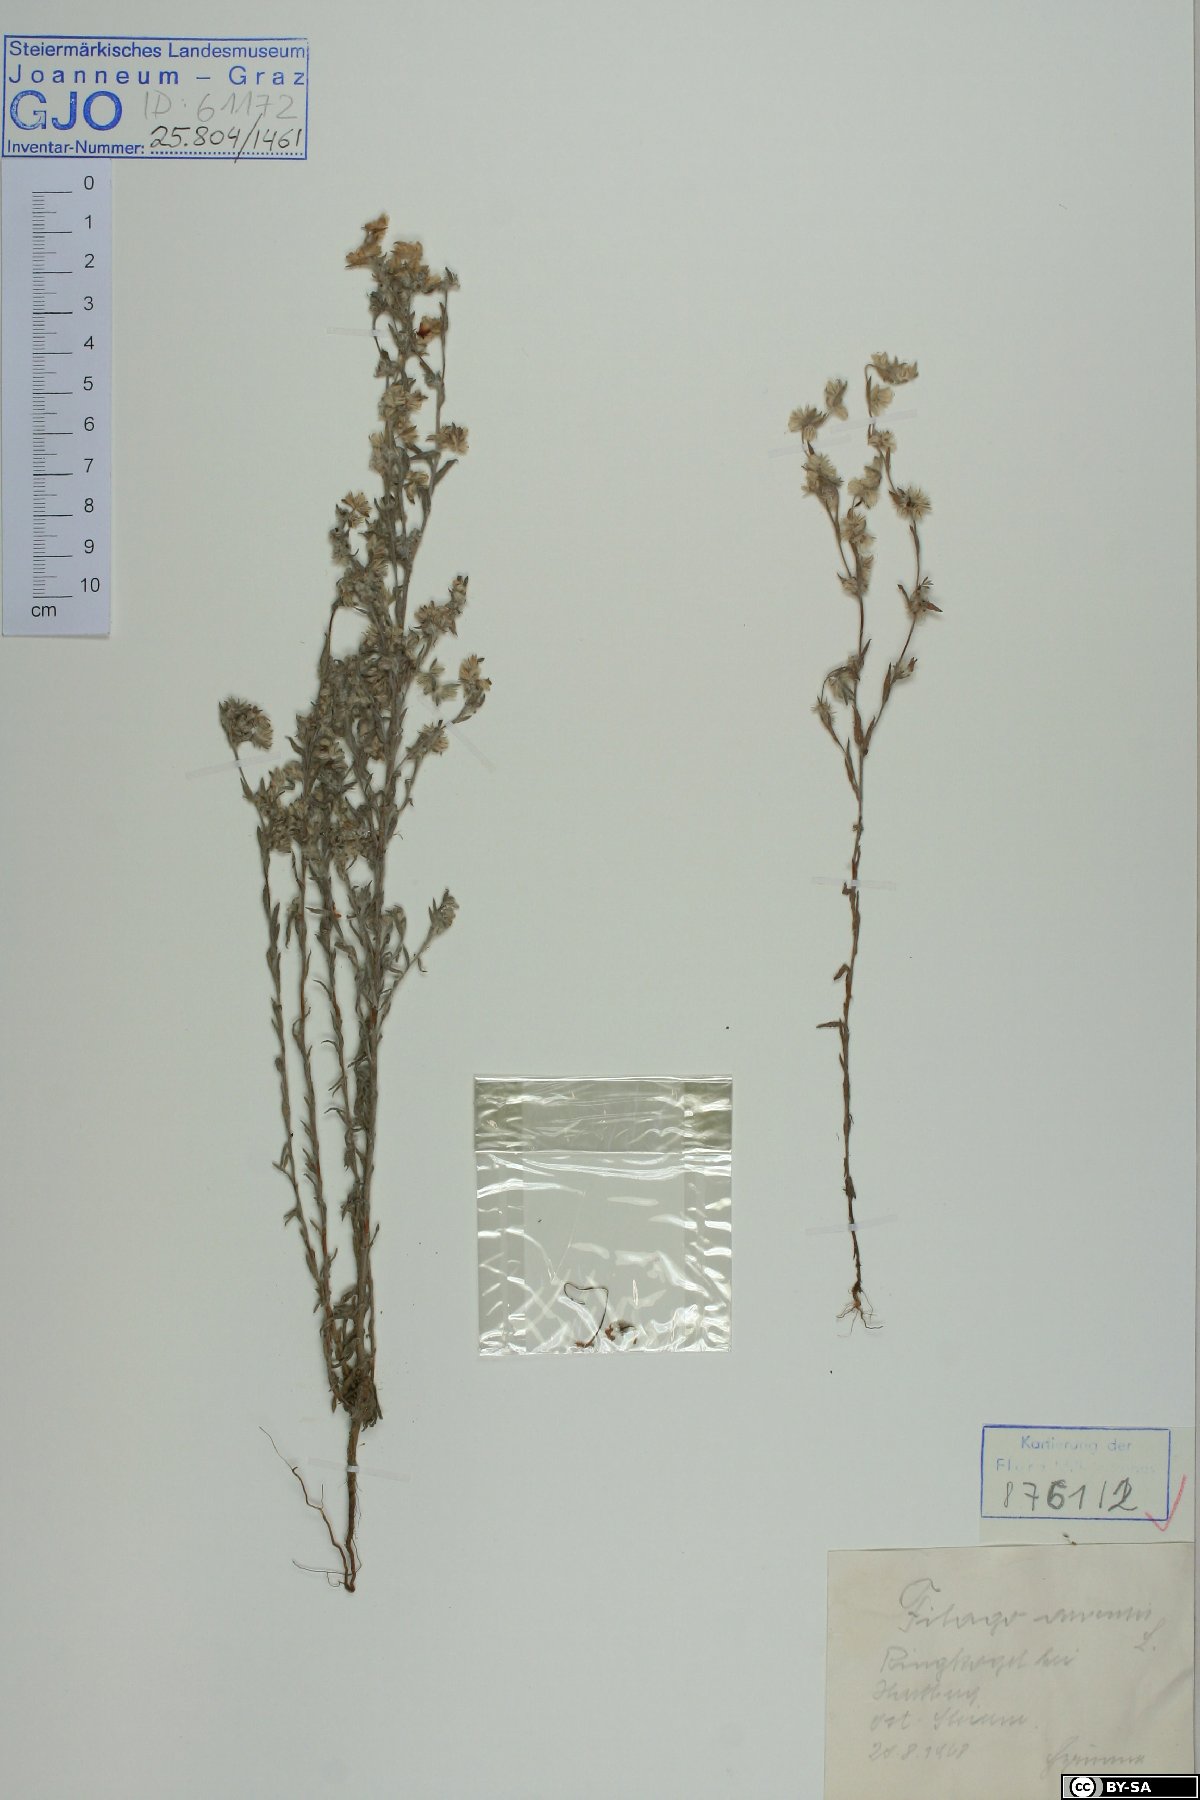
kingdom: Plantae
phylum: Tracheophyta
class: Magnoliopsida
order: Asterales
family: Asteraceae
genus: Filago
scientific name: Filago arvensis
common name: Field cudweed
